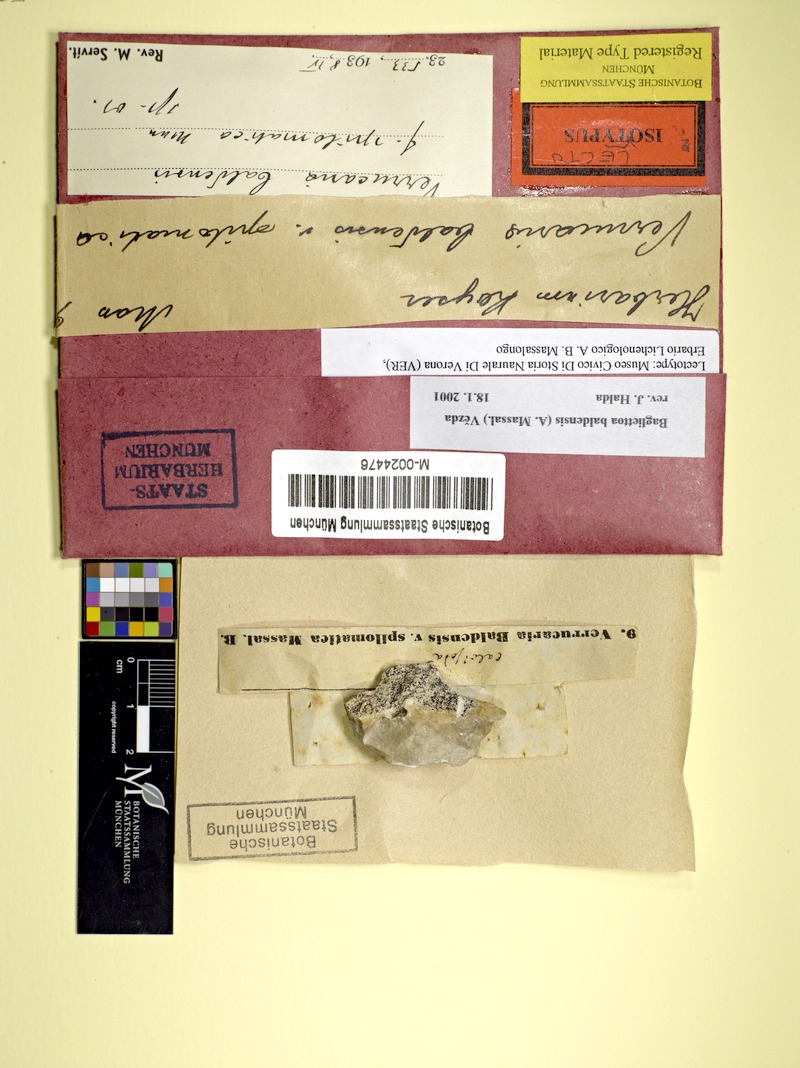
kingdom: Fungi
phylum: Ascomycota
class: Eurotiomycetes
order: Verrucariales
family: Verrucariaceae
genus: Bagliettoa
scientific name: Bagliettoa baldensis
